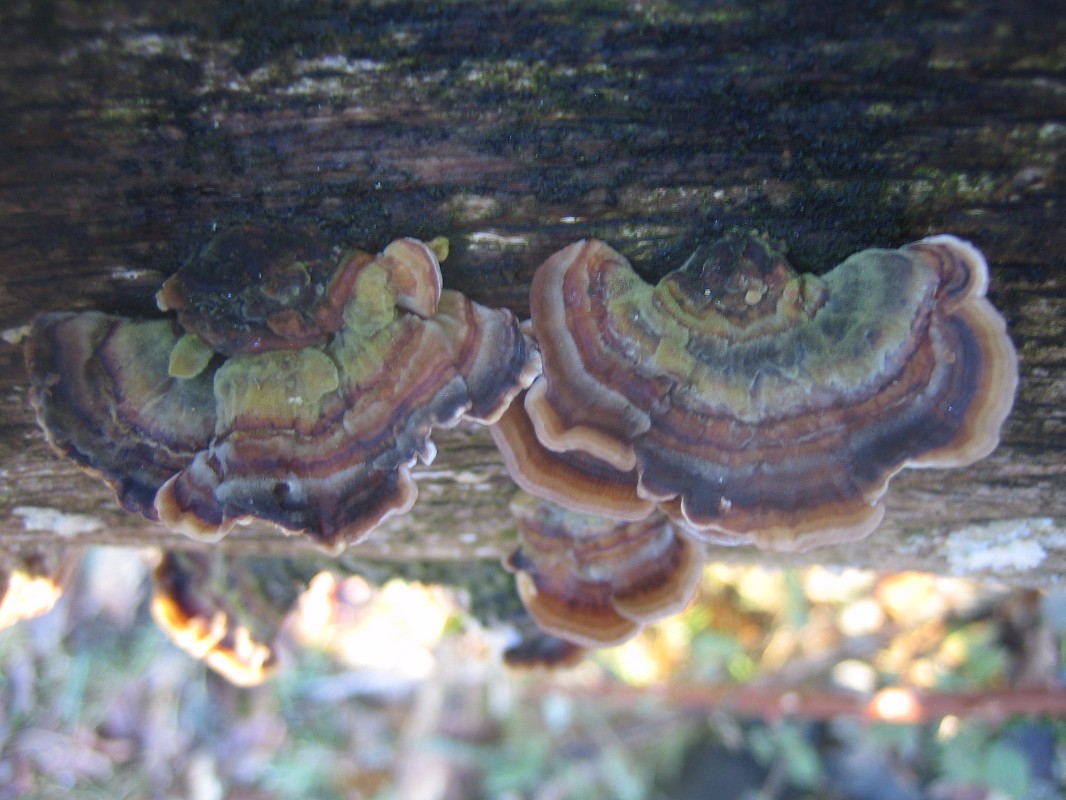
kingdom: Fungi
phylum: Basidiomycota
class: Agaricomycetes
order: Polyporales
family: Polyporaceae
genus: Trametes
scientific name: Trametes versicolor
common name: broget læderporesvamp
